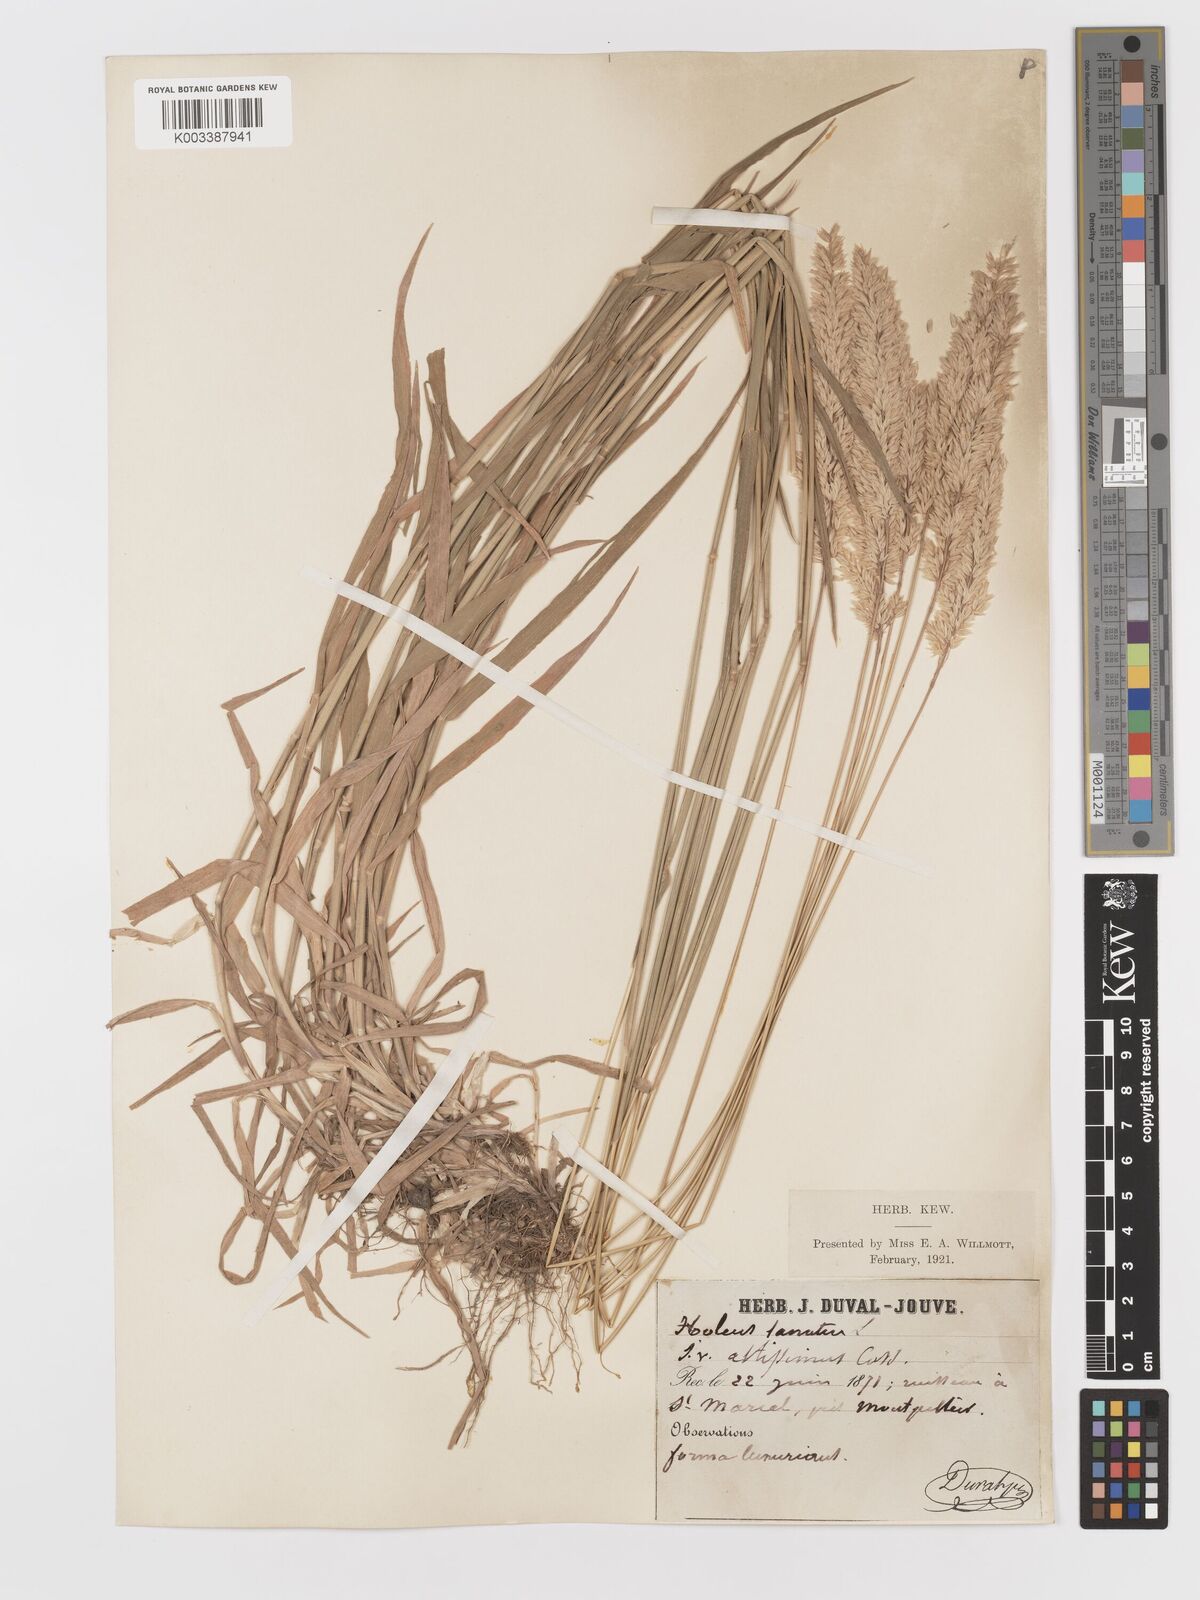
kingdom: Plantae
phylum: Tracheophyta
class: Liliopsida
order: Poales
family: Poaceae
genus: Holcus
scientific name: Holcus lanatus
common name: Yorkshire-fog
